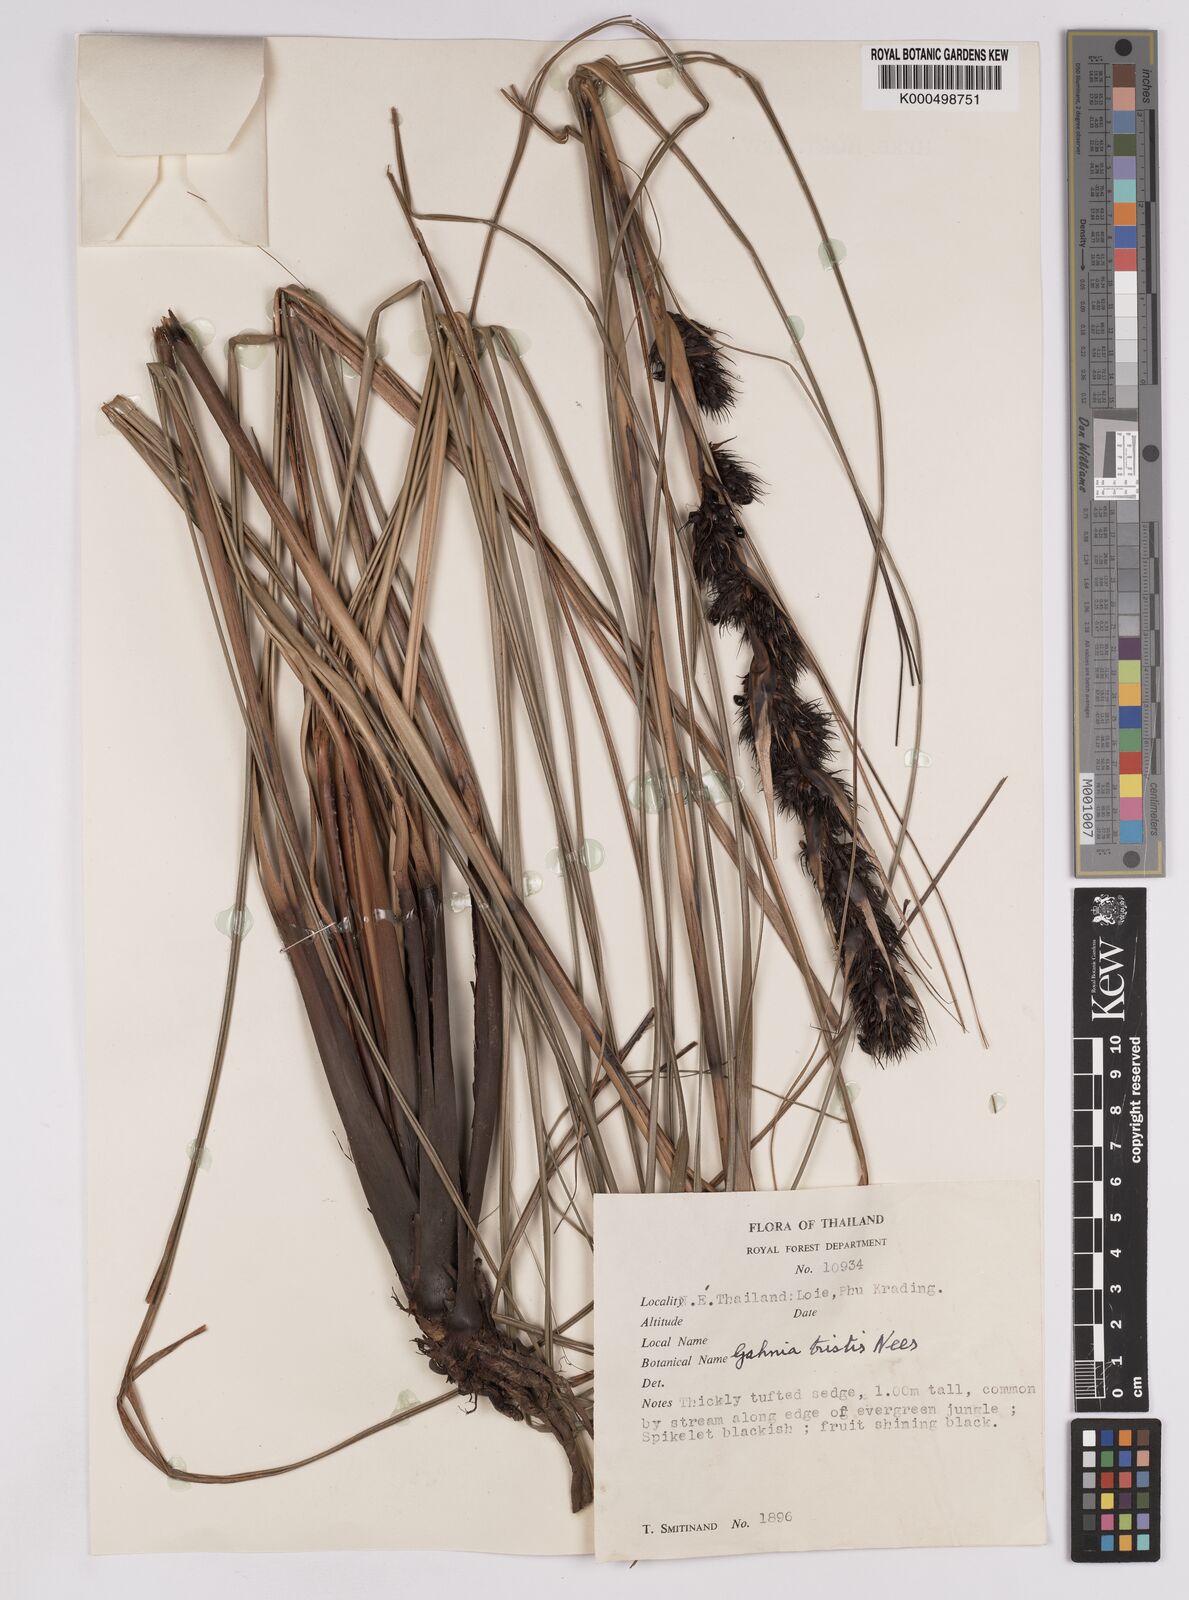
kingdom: Plantae
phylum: Tracheophyta
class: Liliopsida
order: Poales
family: Cyperaceae
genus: Gahnia
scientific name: Gahnia tristis
